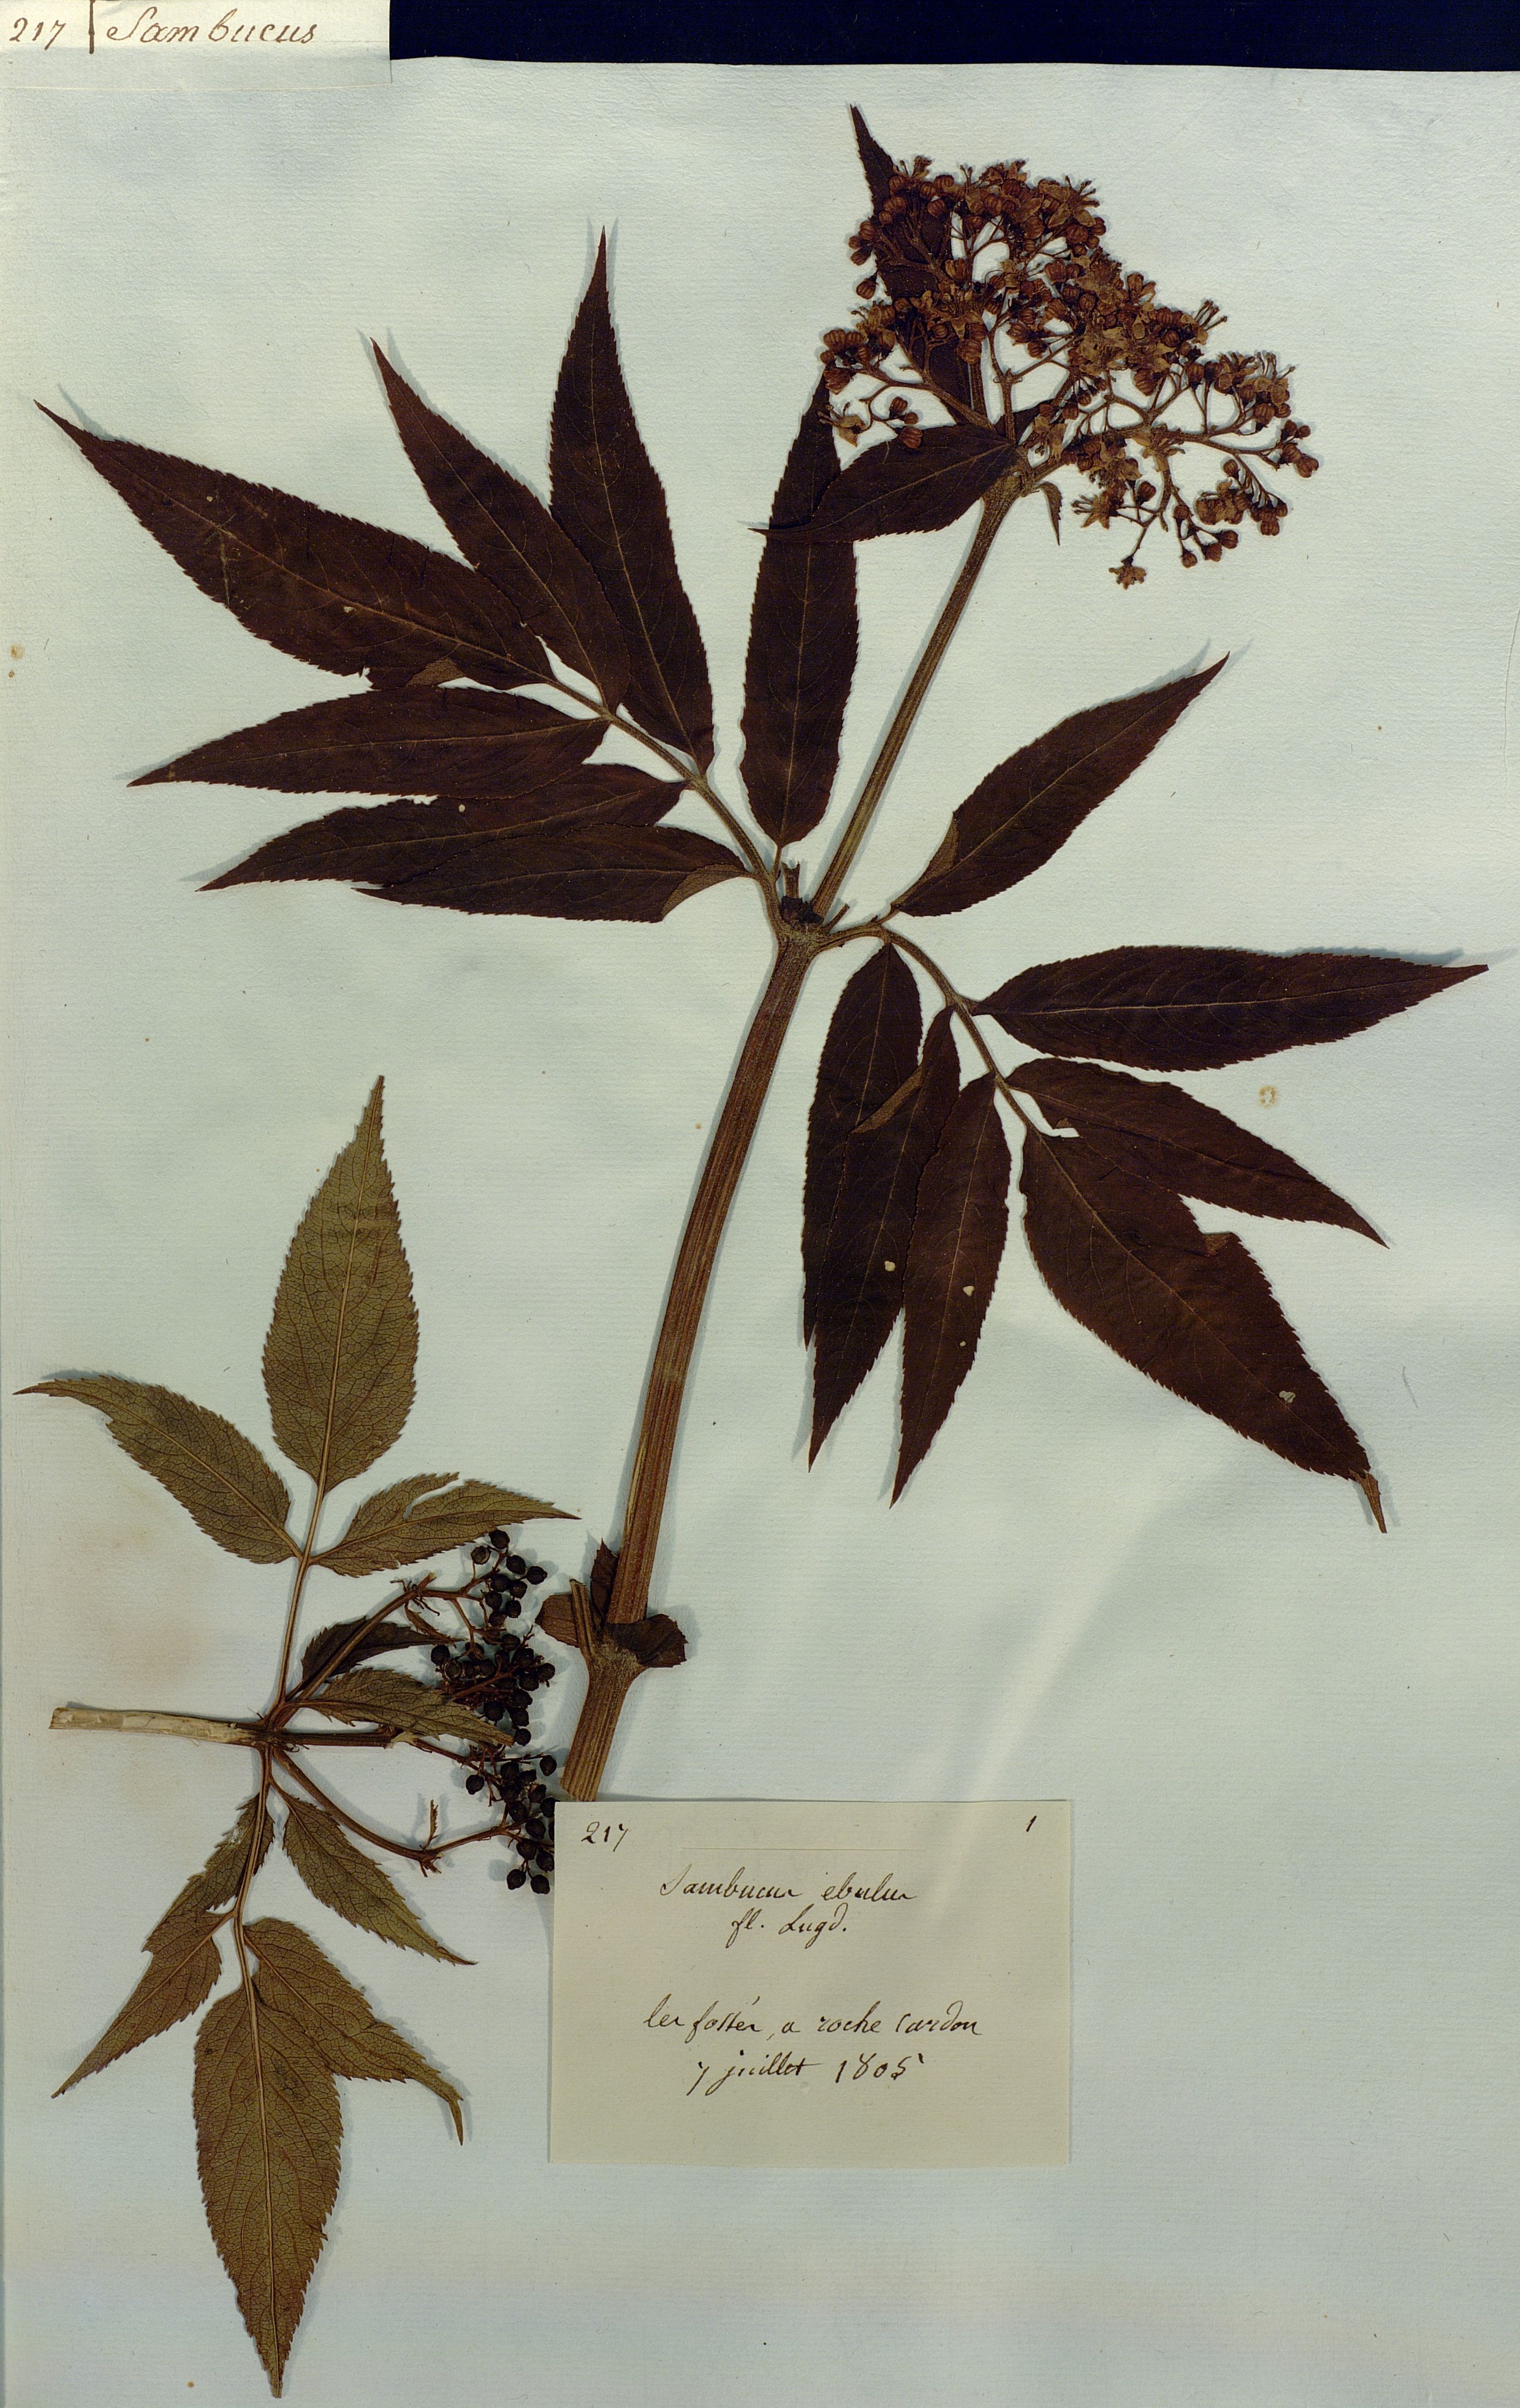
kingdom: Plantae
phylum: Tracheophyta
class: Magnoliopsida
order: Dipsacales
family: Viburnaceae
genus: Sambucus
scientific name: Sambucus ebulus
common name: Dwarf elder
